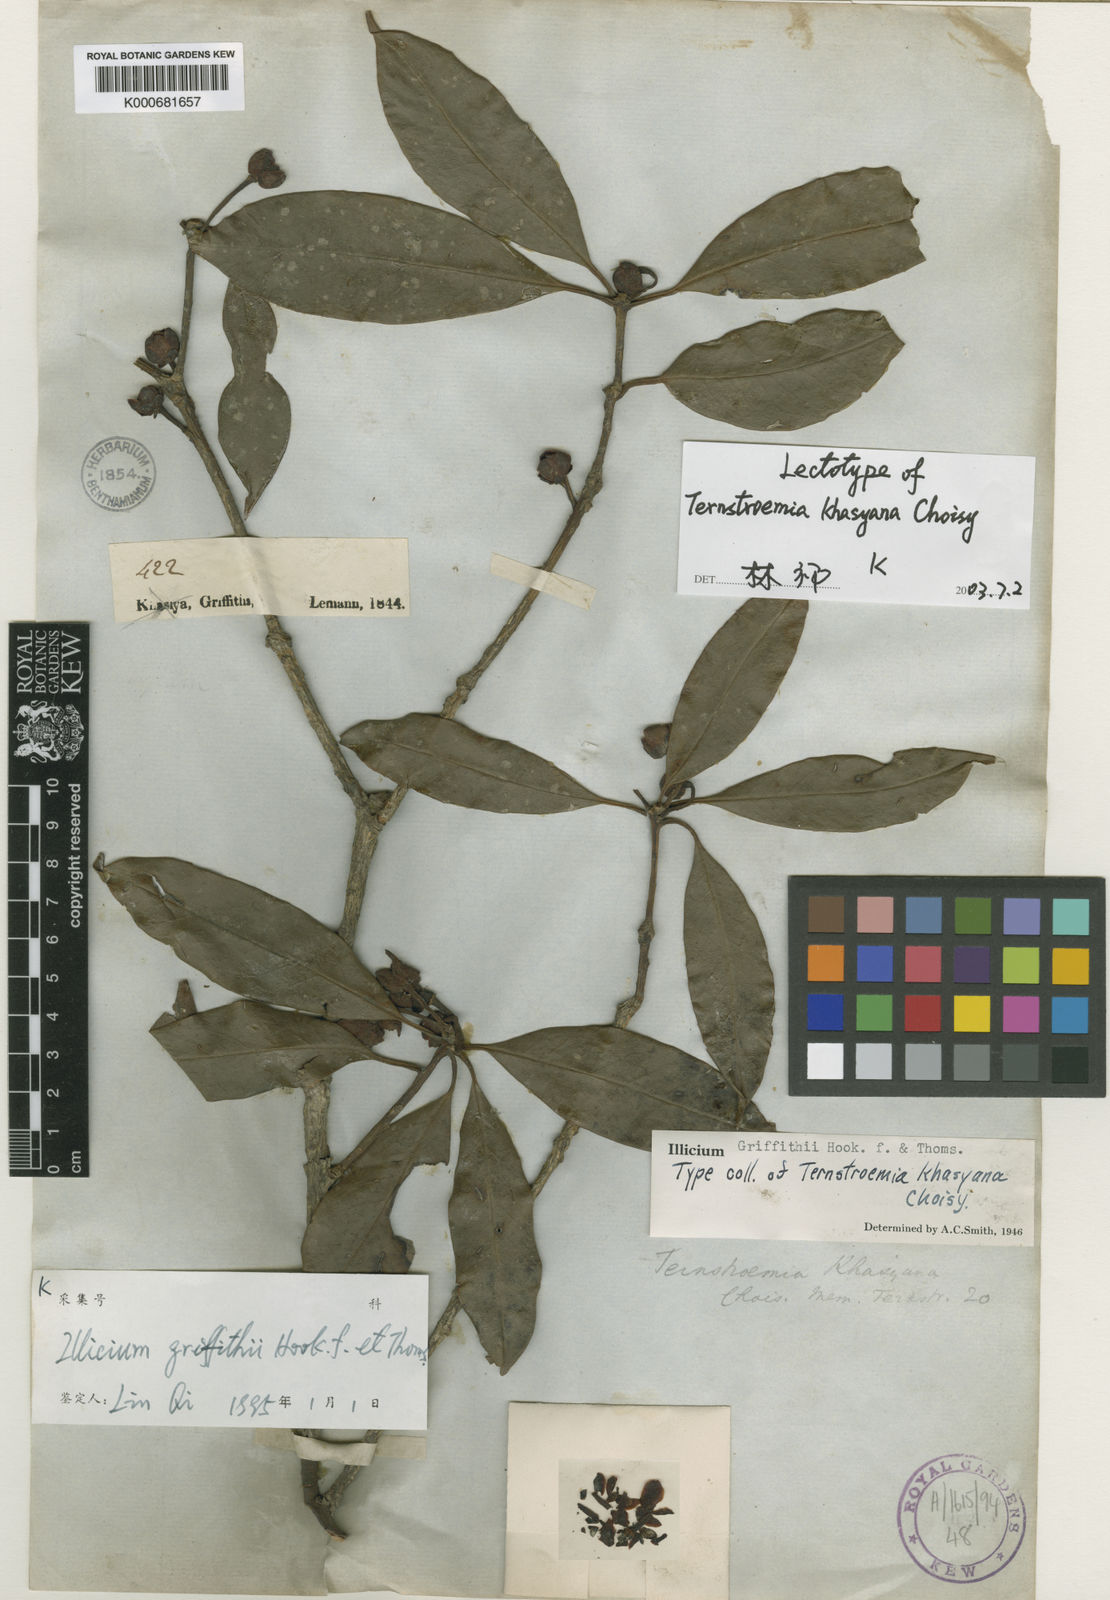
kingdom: Plantae
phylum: Tracheophyta
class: Magnoliopsida
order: Austrobaileyales
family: Schisandraceae
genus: Illicium
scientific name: Illicium griffithii
